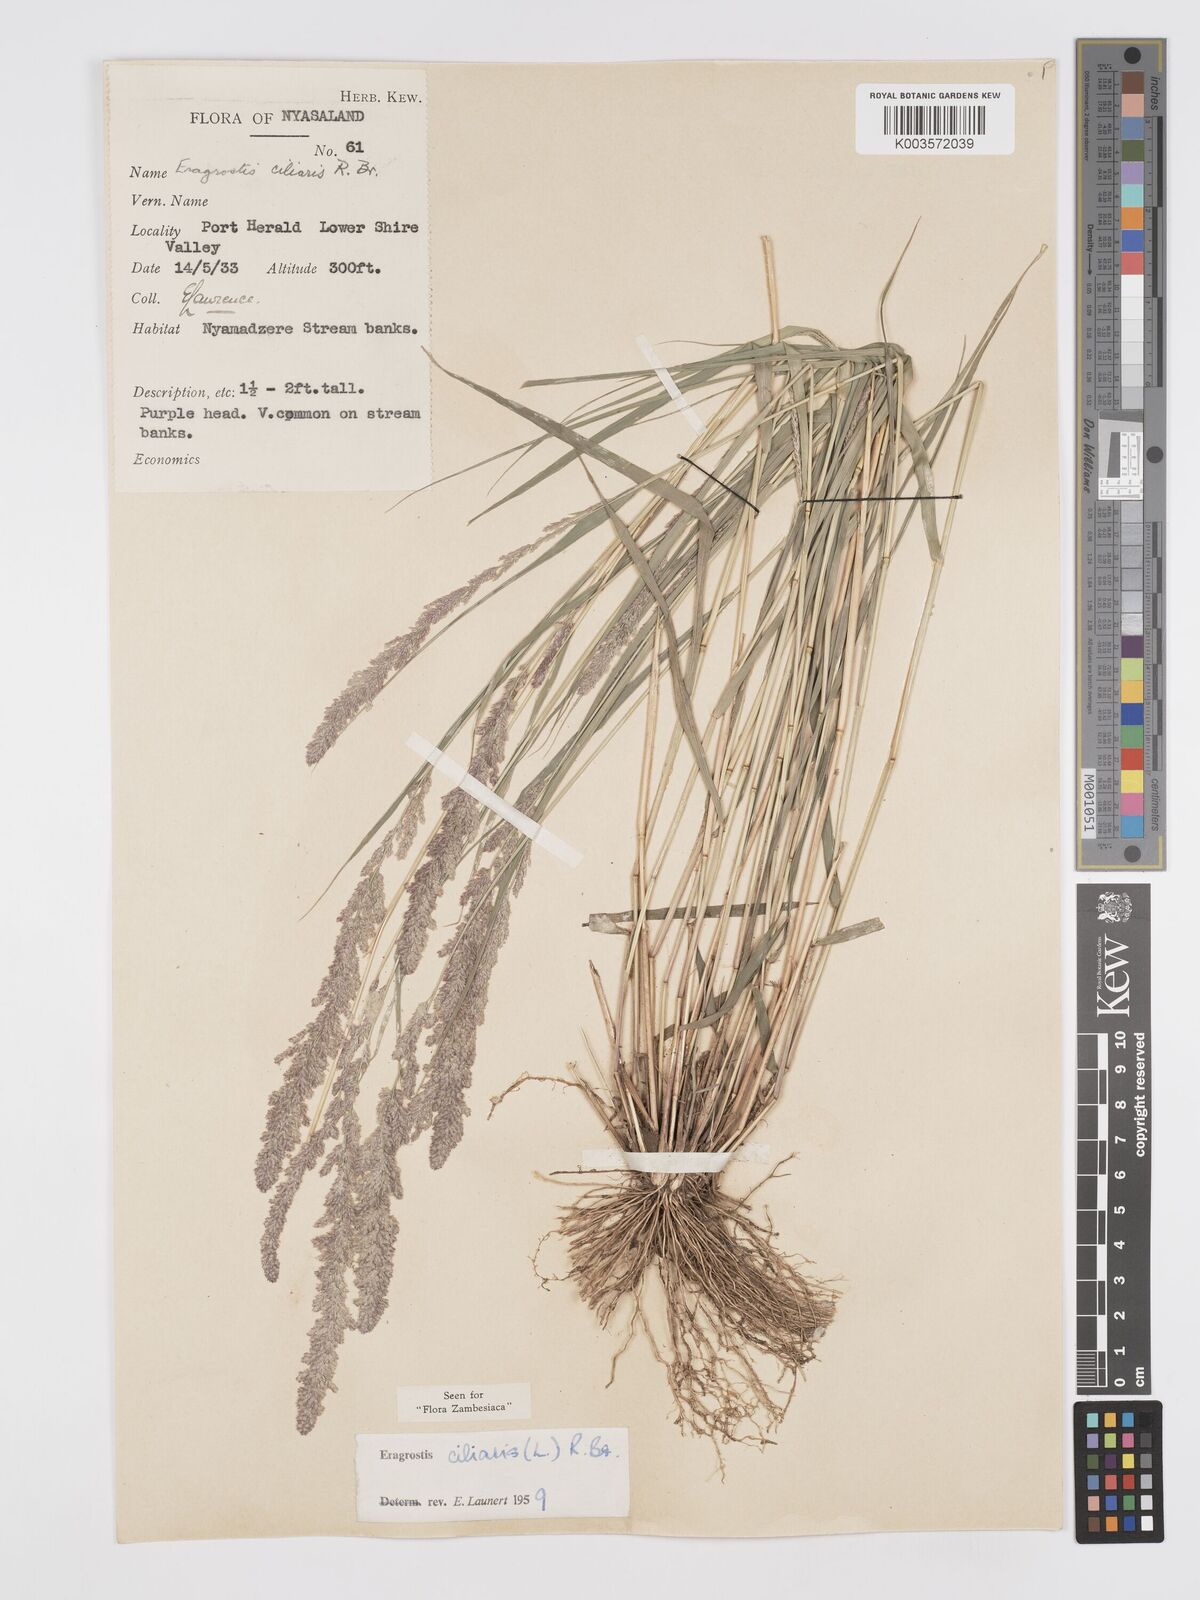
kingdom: Plantae
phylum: Tracheophyta
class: Liliopsida
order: Poales
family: Poaceae
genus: Eragrostis
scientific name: Eragrostis ciliaris
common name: Gophertail lovegrass
